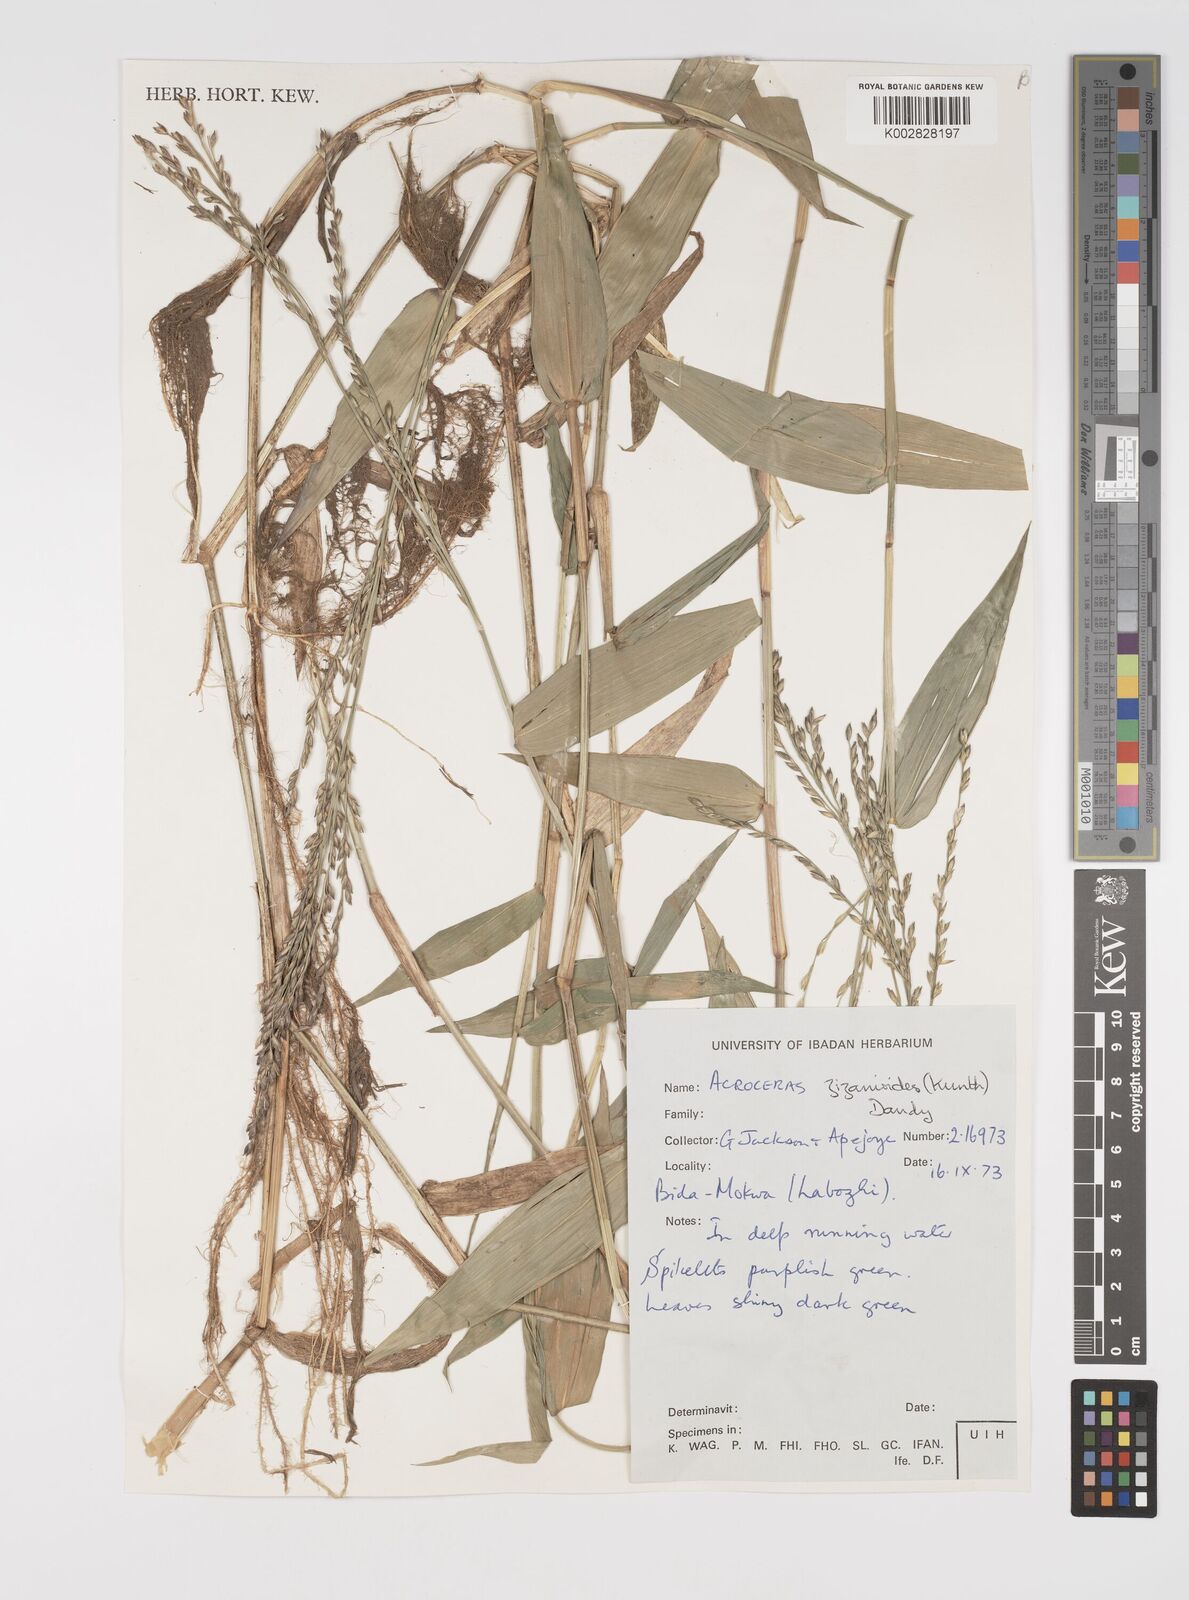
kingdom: Plantae
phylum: Tracheophyta
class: Liliopsida
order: Poales
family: Poaceae
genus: Acroceras
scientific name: Acroceras zizanioides
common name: Oat grass
